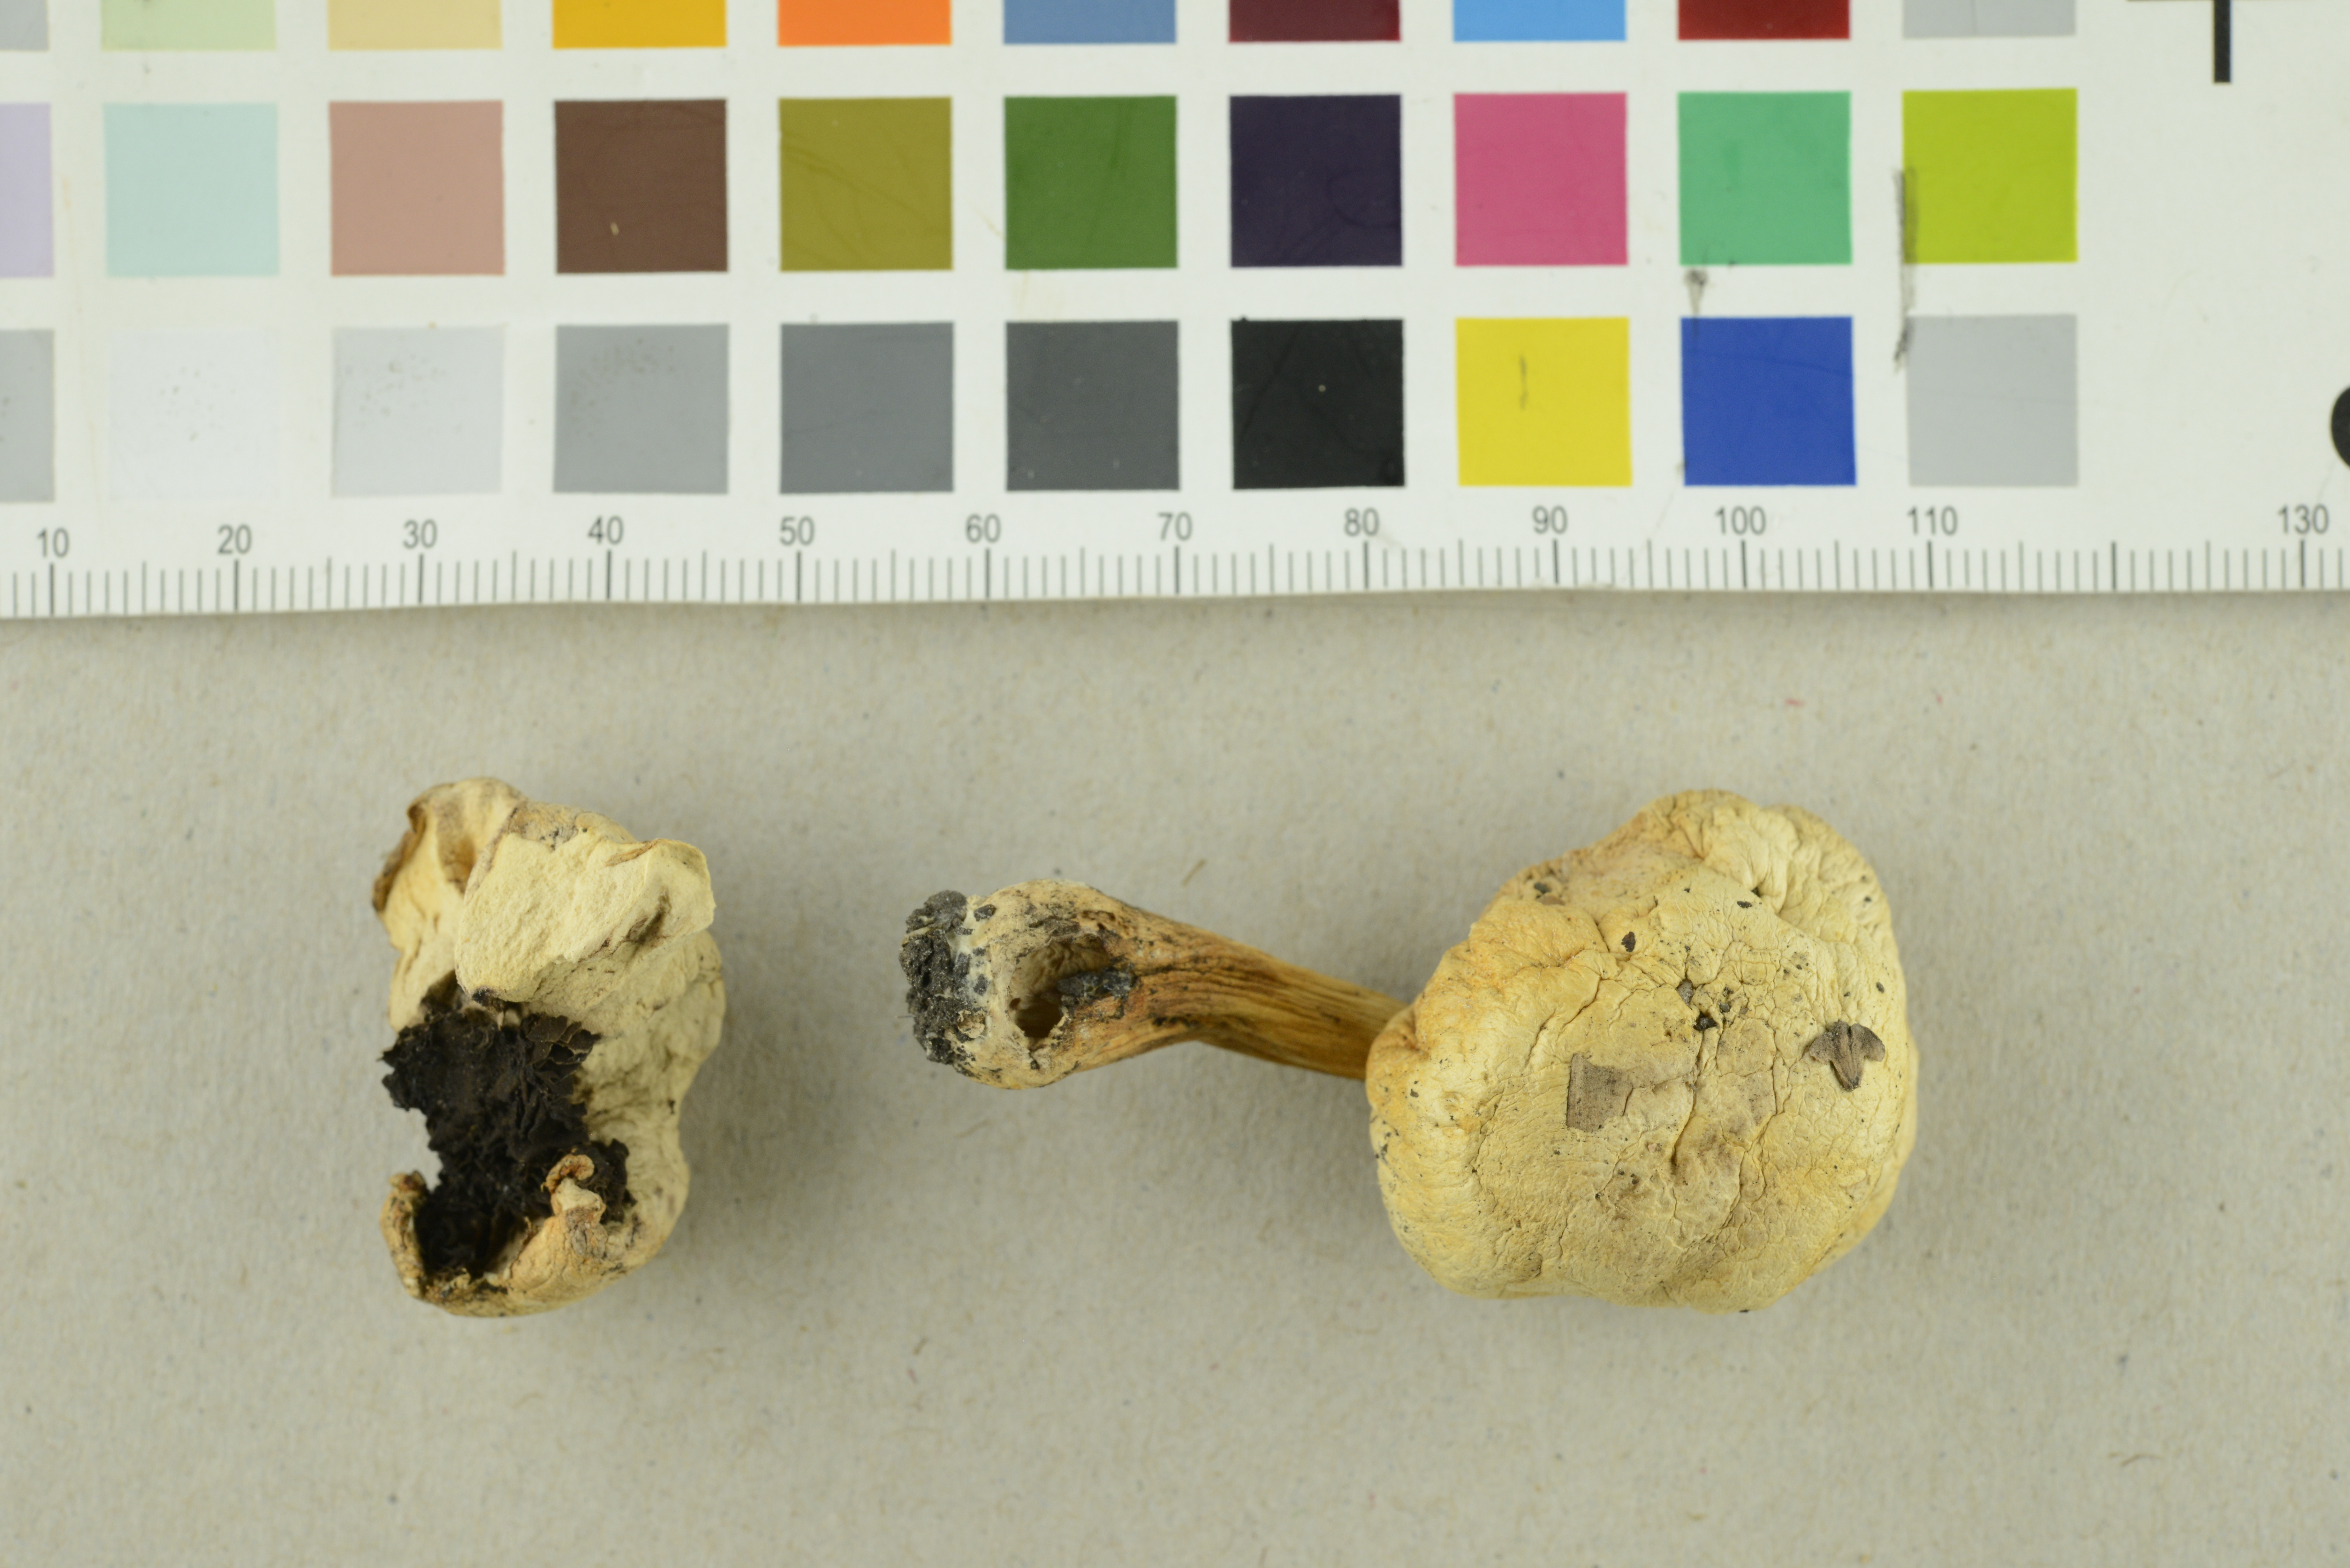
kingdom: Fungi
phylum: Basidiomycota
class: Agaricomycetes
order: Agaricales
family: Agaricaceae
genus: Agaricus
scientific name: Agaricus bisporus
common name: Cultivated mushroom
